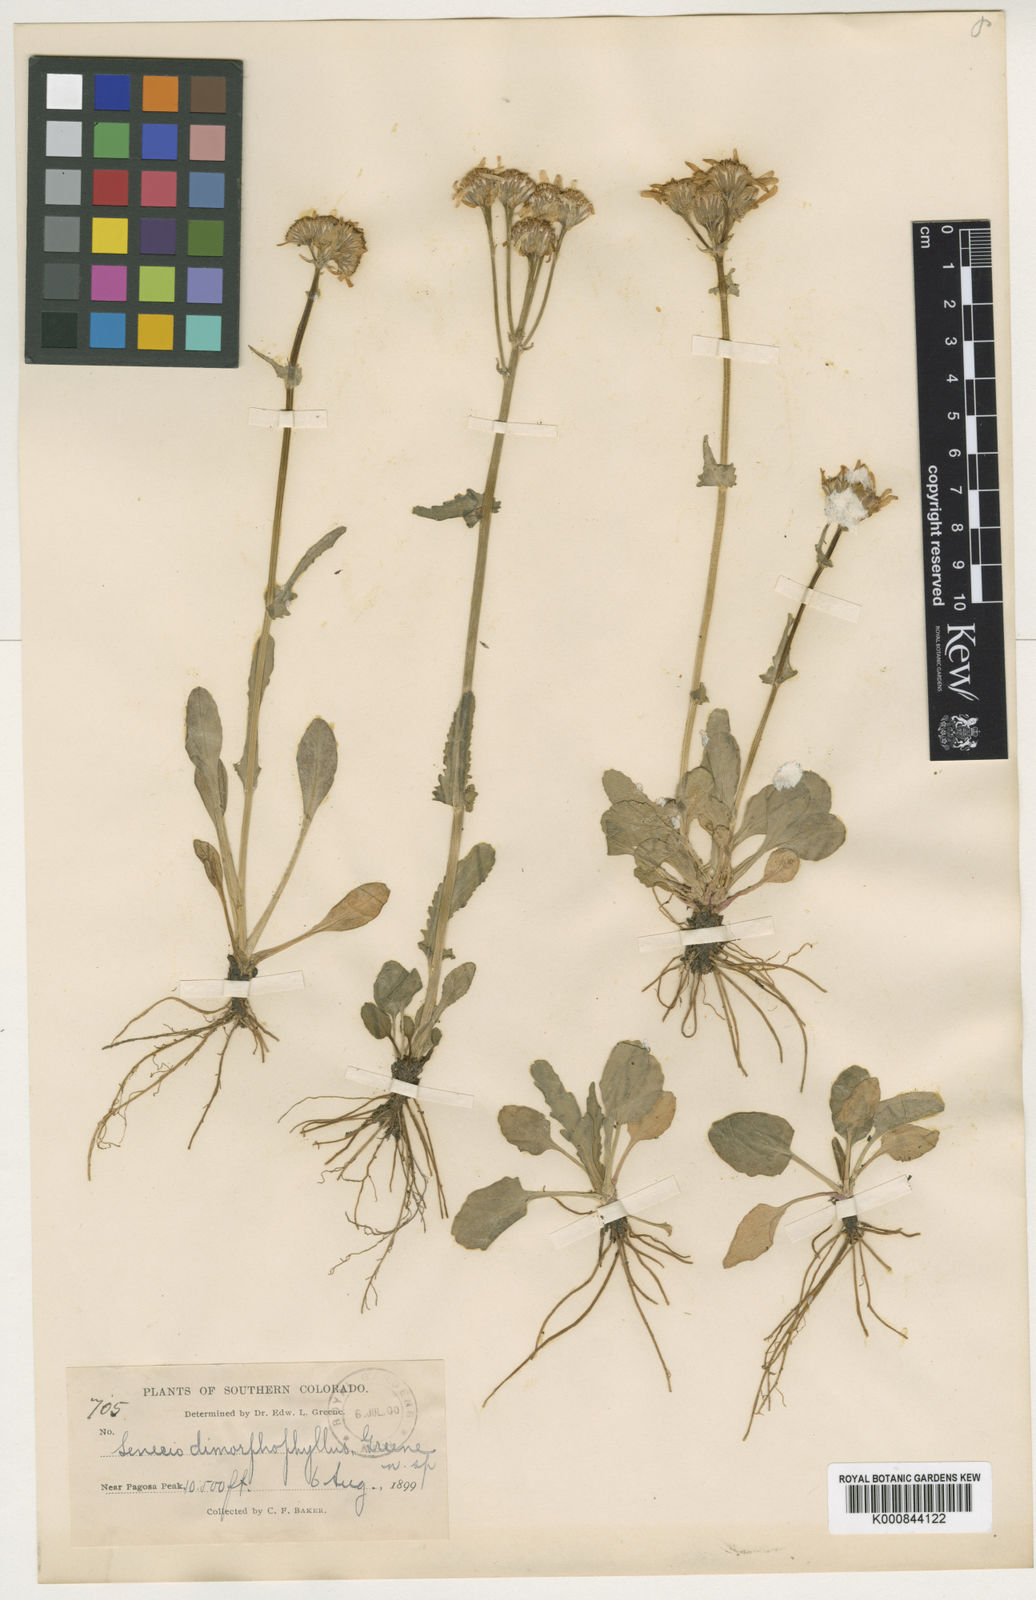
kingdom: Plantae
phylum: Tracheophyta
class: Magnoliopsida
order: Asterales
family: Asteraceae
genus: Packera
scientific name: Packera
